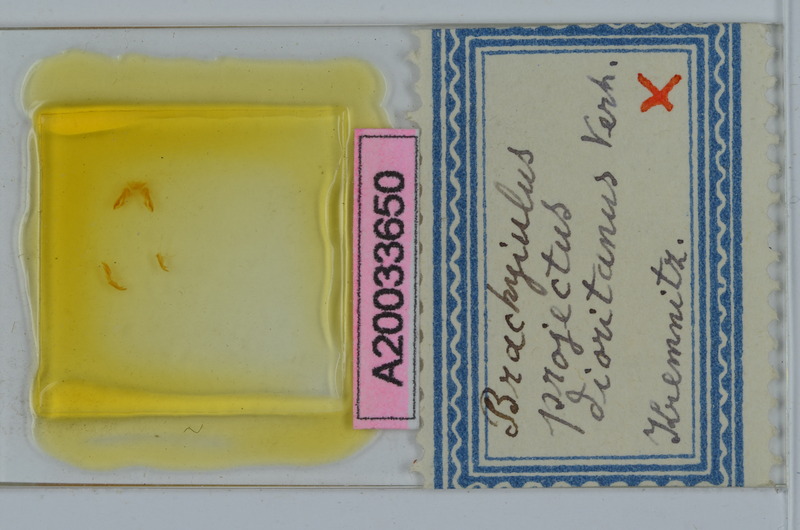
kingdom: Animalia
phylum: Arthropoda
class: Diplopoda
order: Julida
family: Julidae
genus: Megaphyllum
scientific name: Megaphyllum projectum
